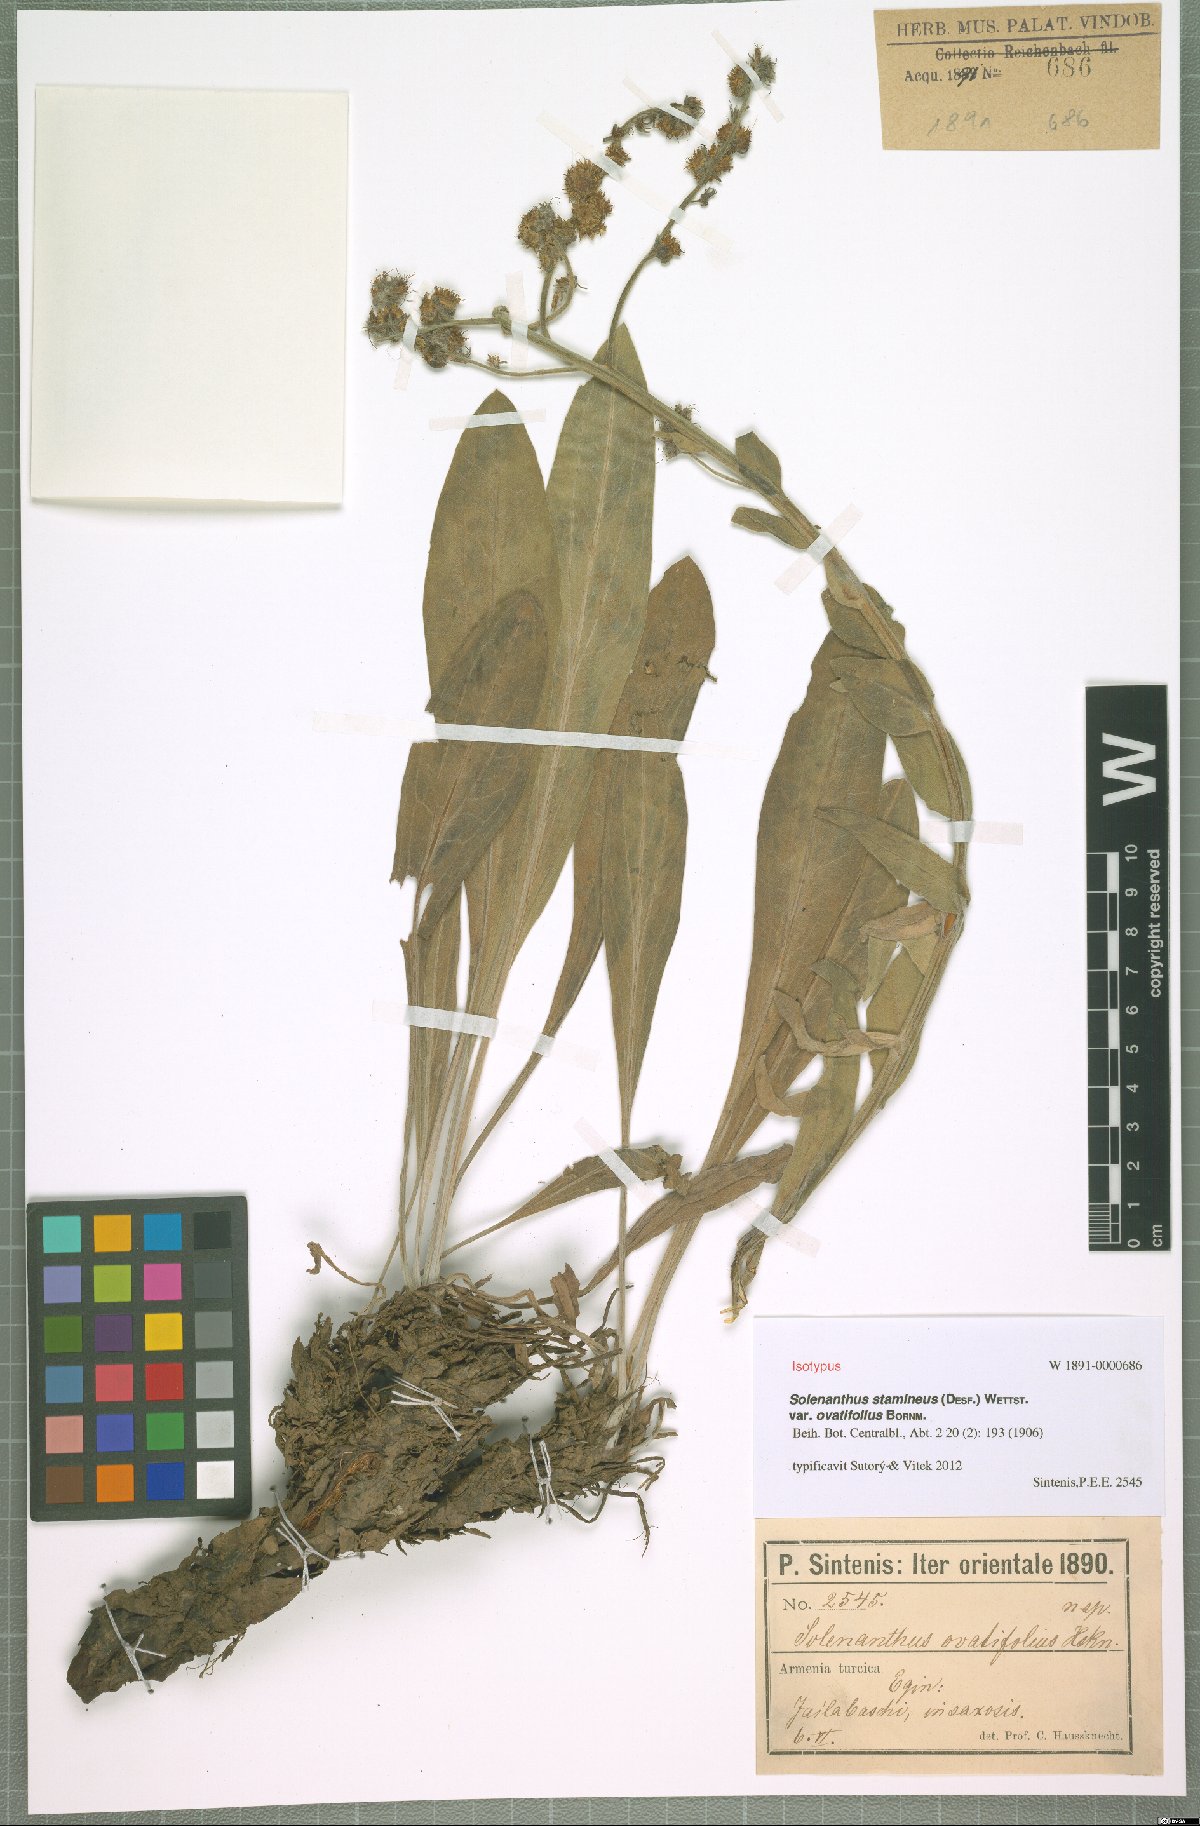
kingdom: Plantae
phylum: Tracheophyta
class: Magnoliopsida
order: Boraginales
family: Boraginaceae
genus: Solenanthus
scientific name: Solenanthus stamineus
